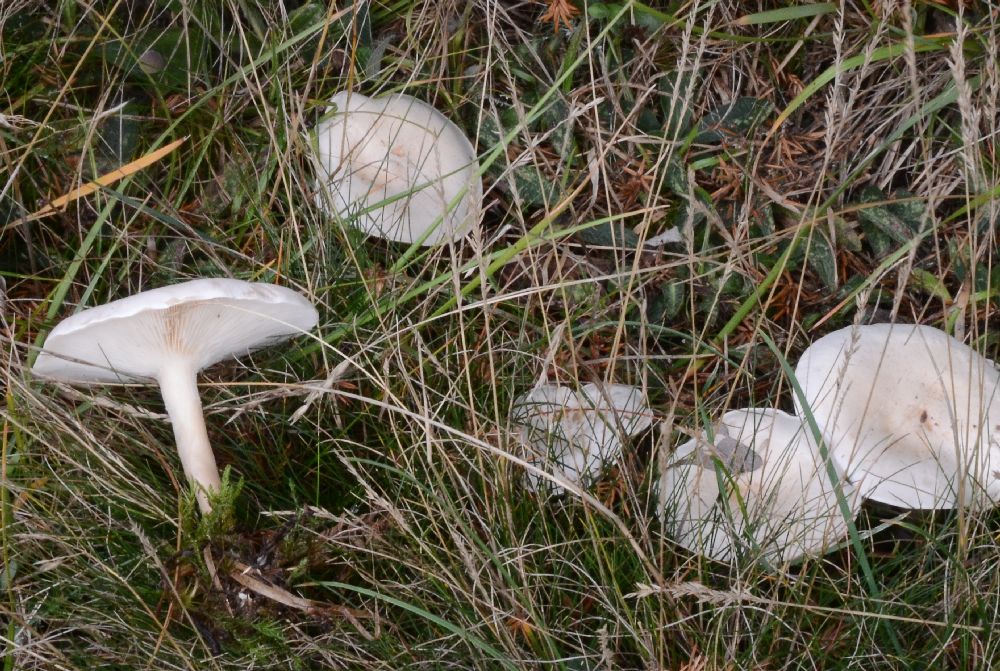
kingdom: Fungi
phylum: Basidiomycota
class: Agaricomycetes
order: Agaricales
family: Tricholomataceae
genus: Clitocybe
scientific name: Clitocybe agrestis
